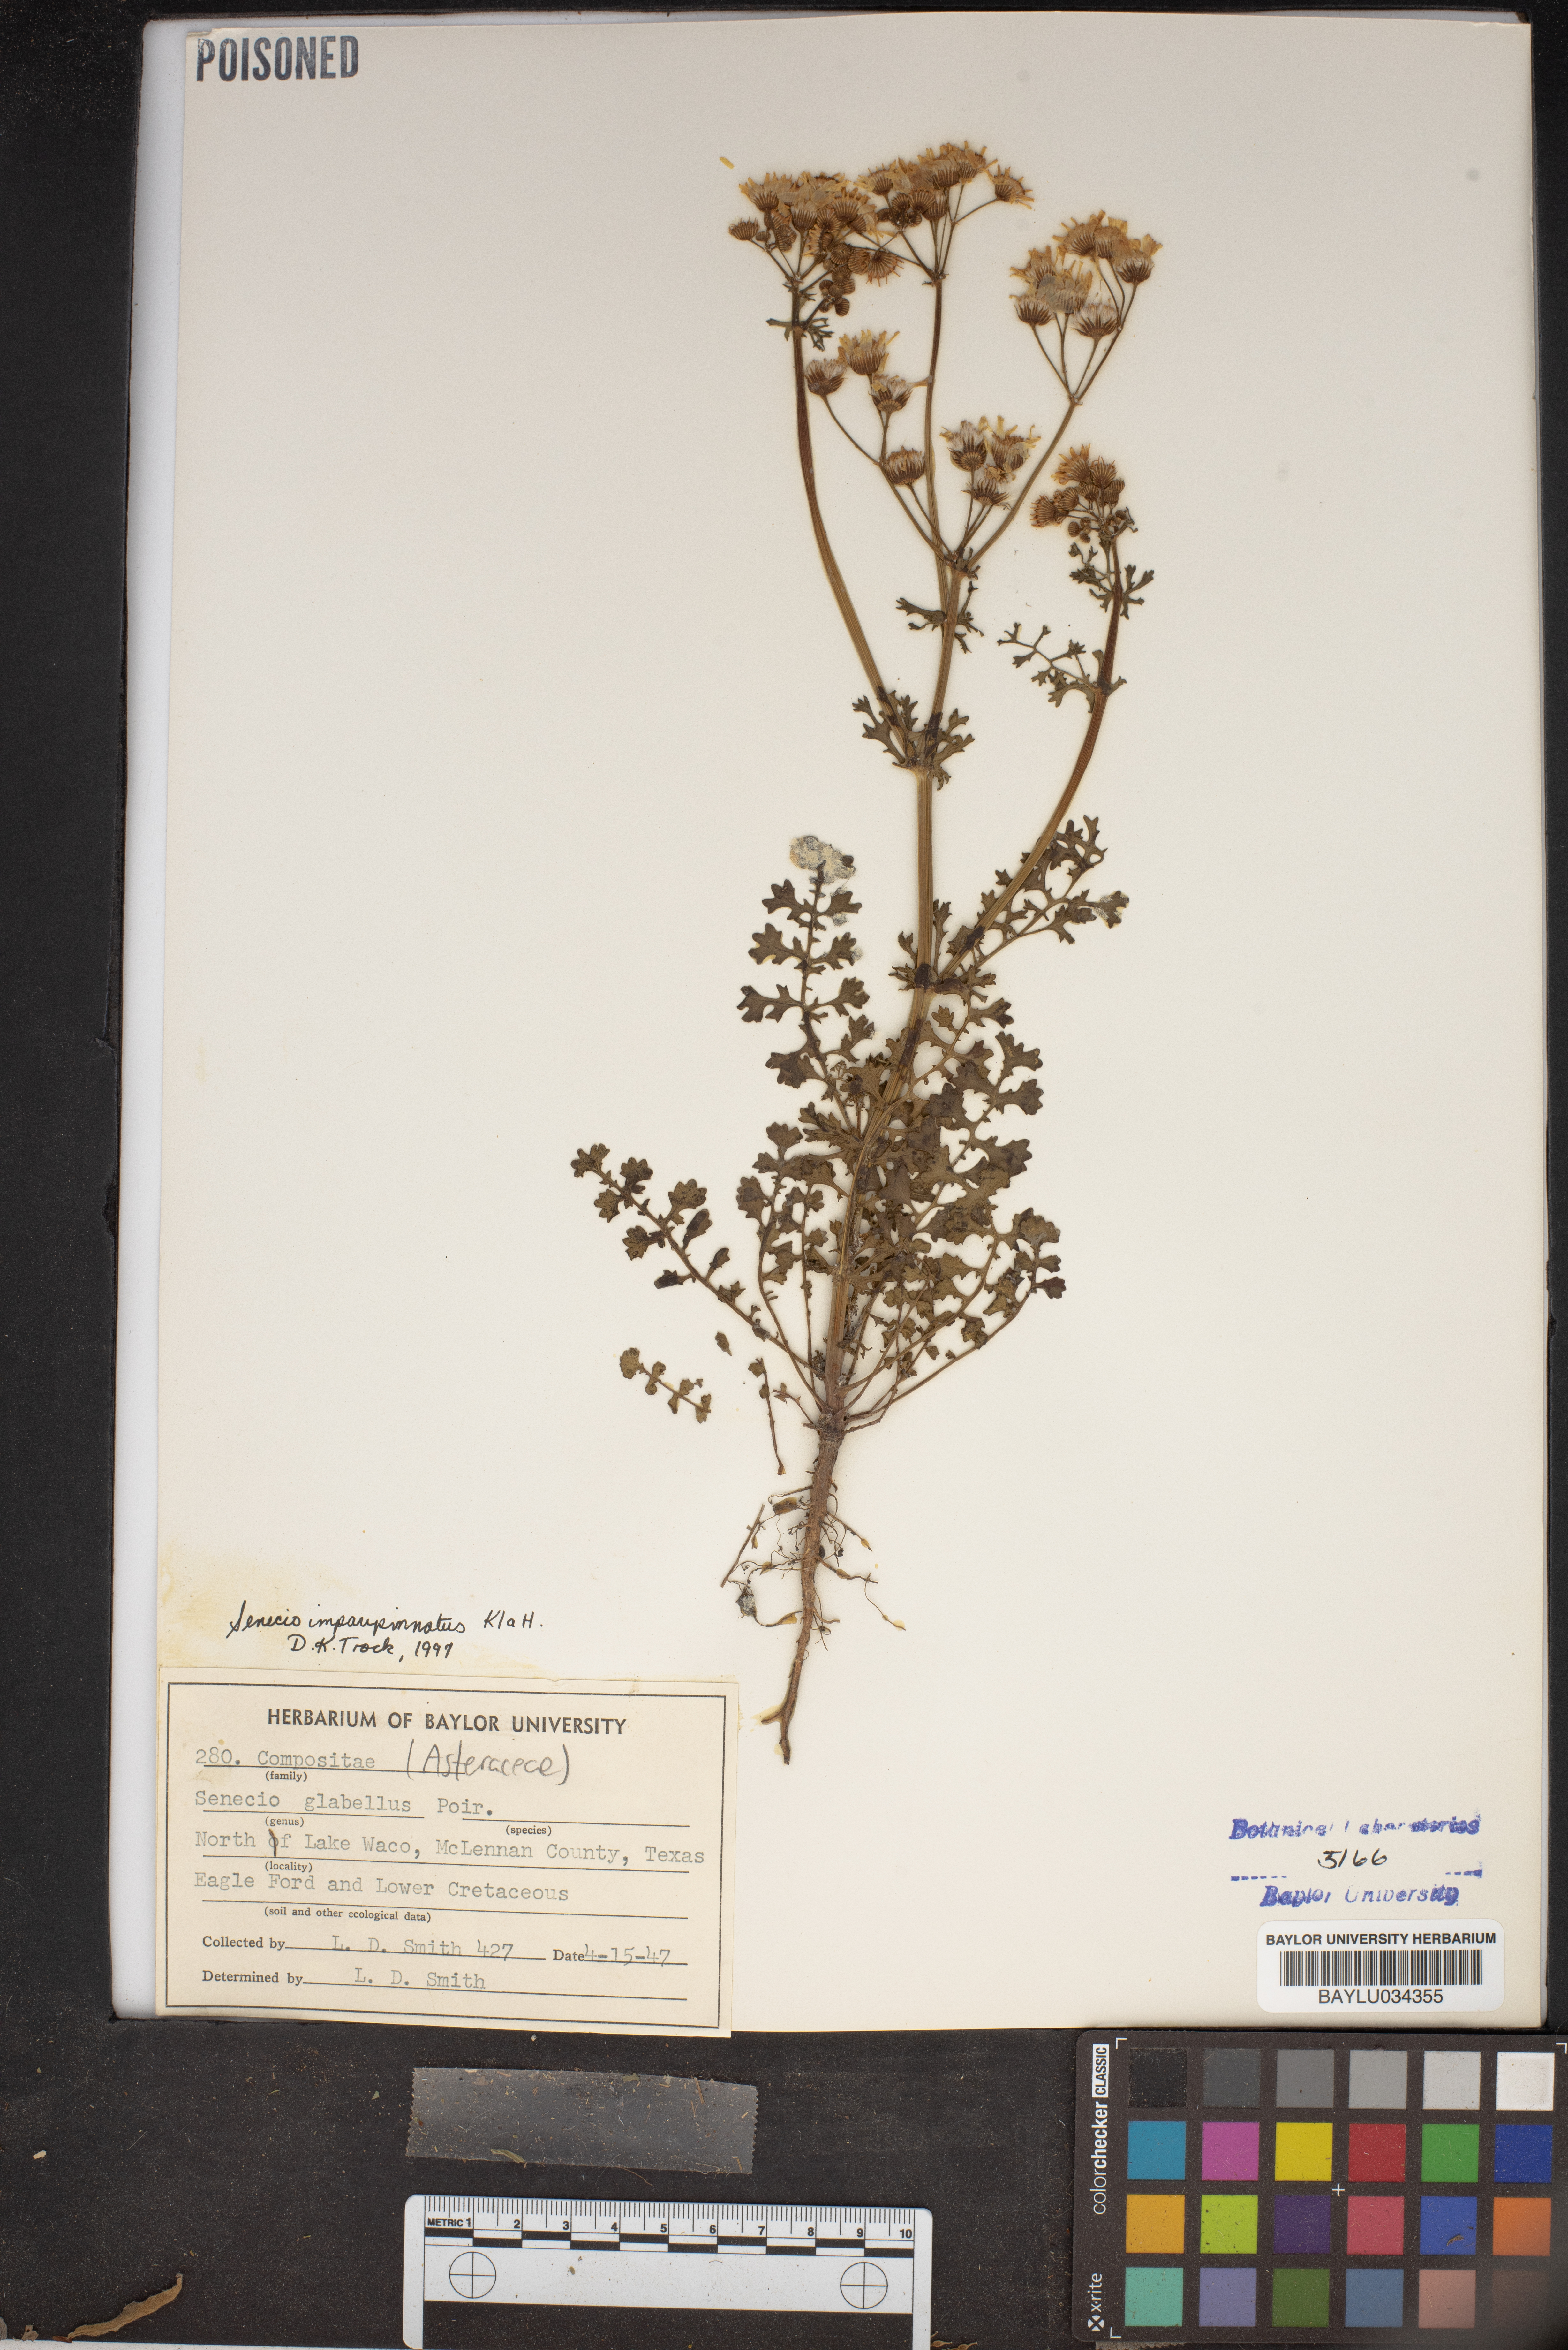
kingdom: Plantae
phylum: Tracheophyta
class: Magnoliopsida
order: Asterales
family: Asteraceae
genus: Packera
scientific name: Packera tampicana
